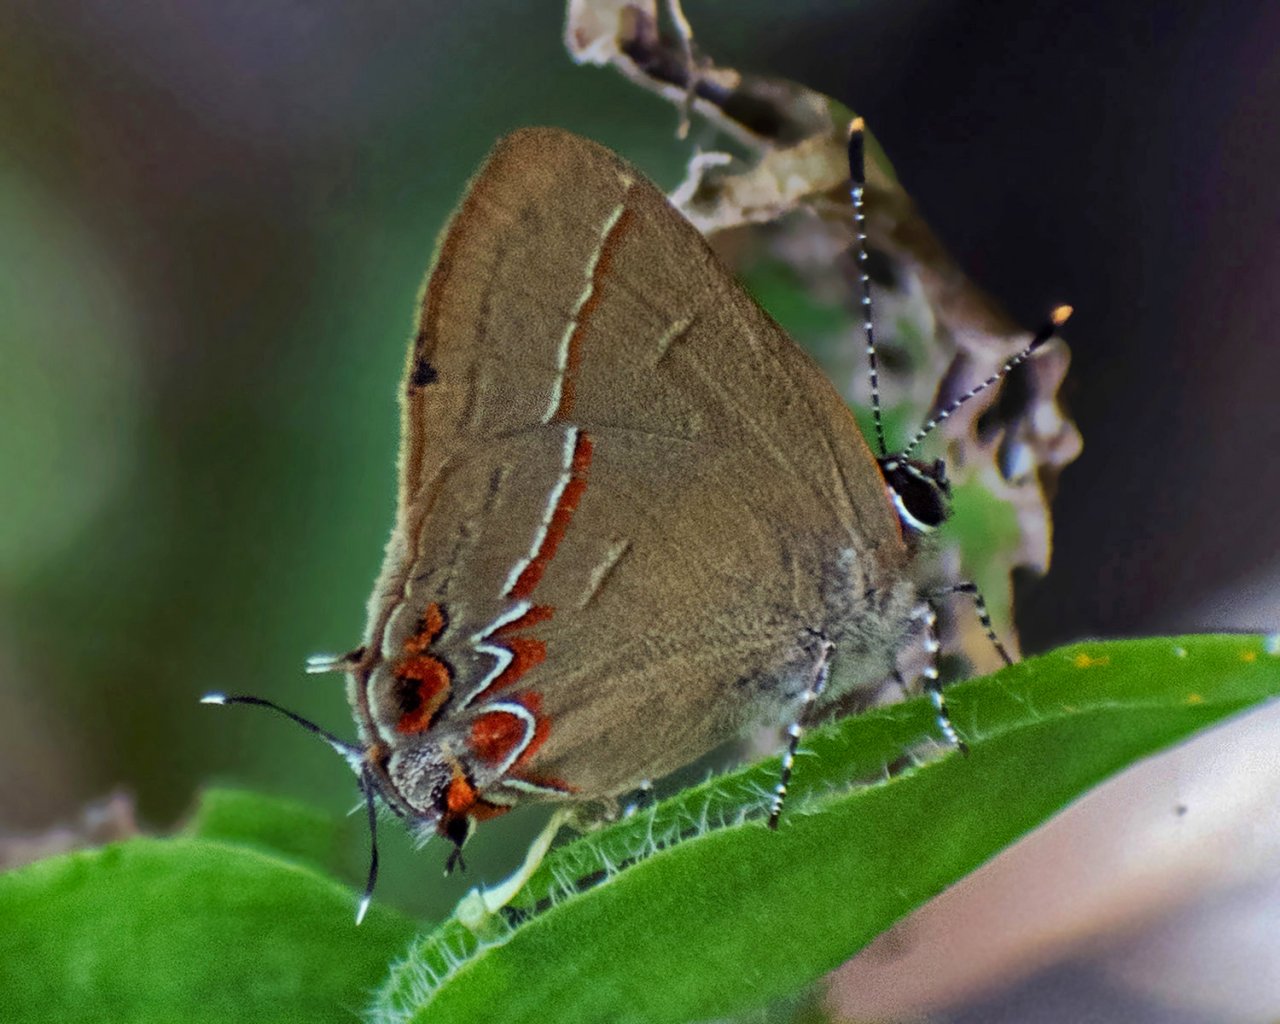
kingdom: Animalia
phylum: Arthropoda
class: Insecta
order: Lepidoptera
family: Lycaenidae
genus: Calycopis
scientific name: Calycopis
